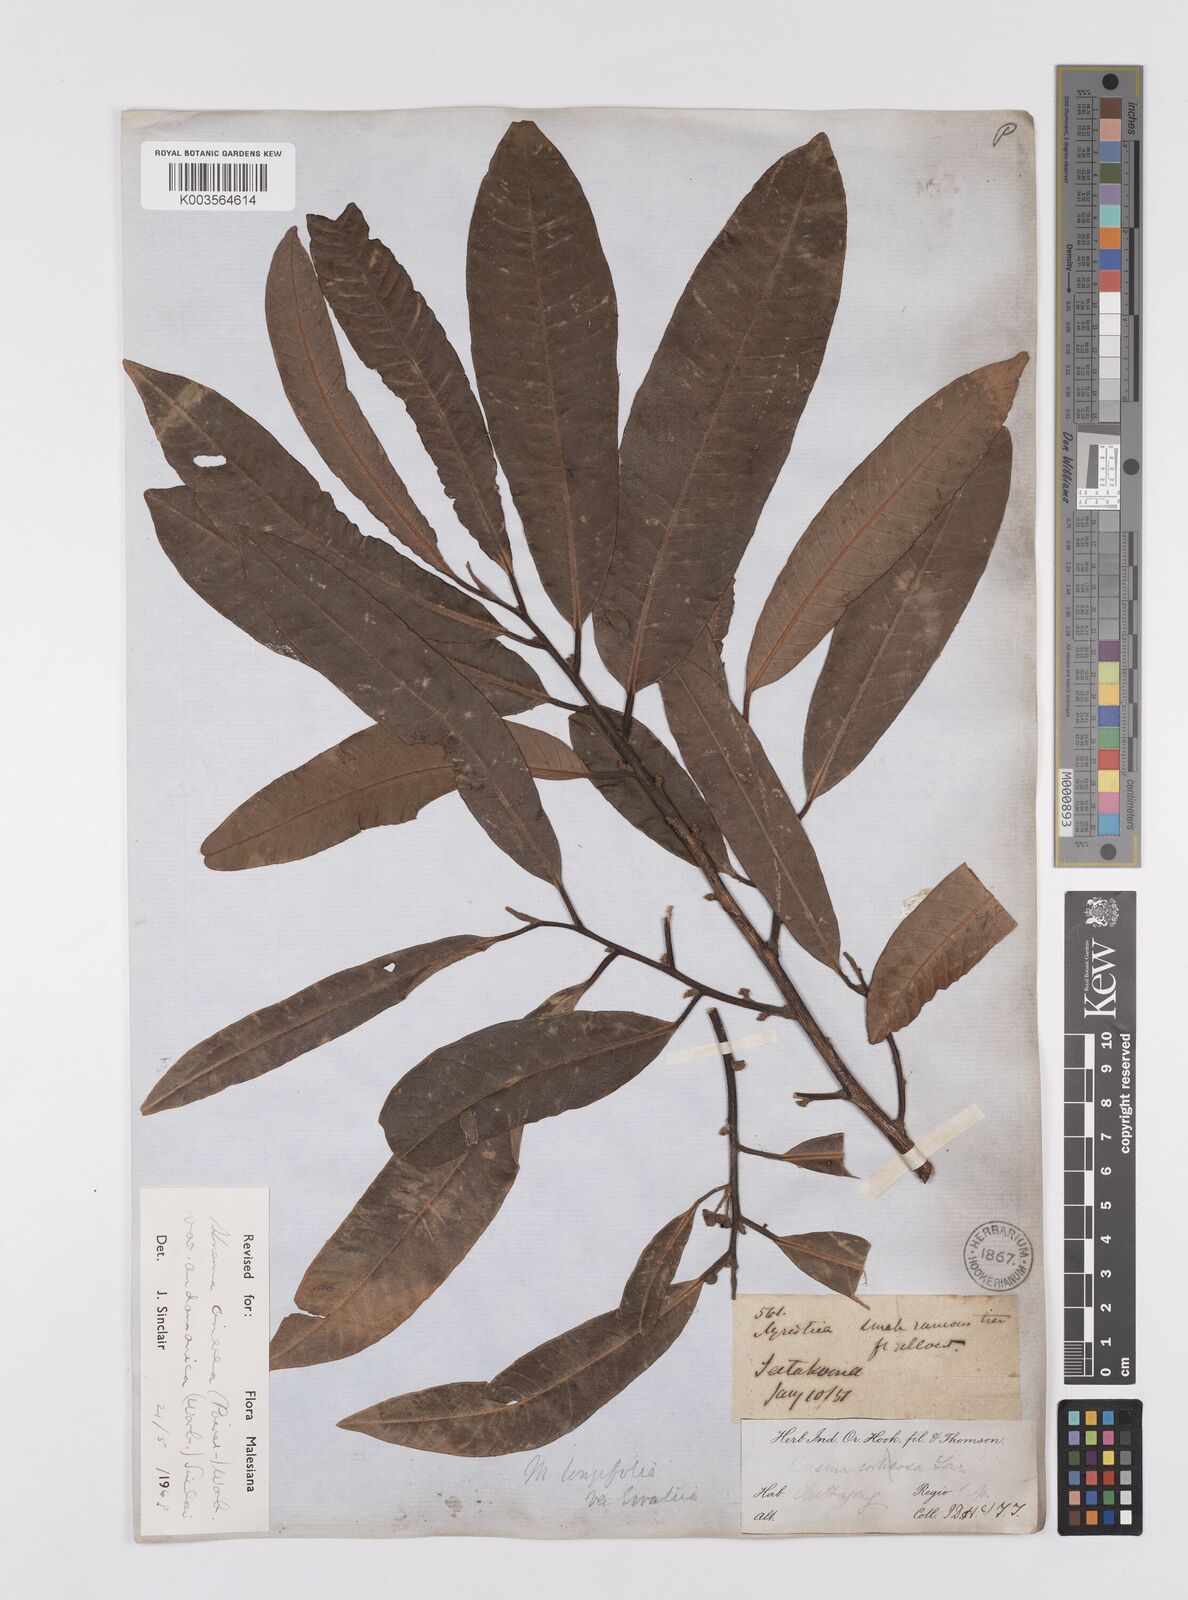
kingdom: Plantae
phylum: Tracheophyta
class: Magnoliopsida
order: Magnoliales
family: Myristicaceae
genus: Knema
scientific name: Knema
